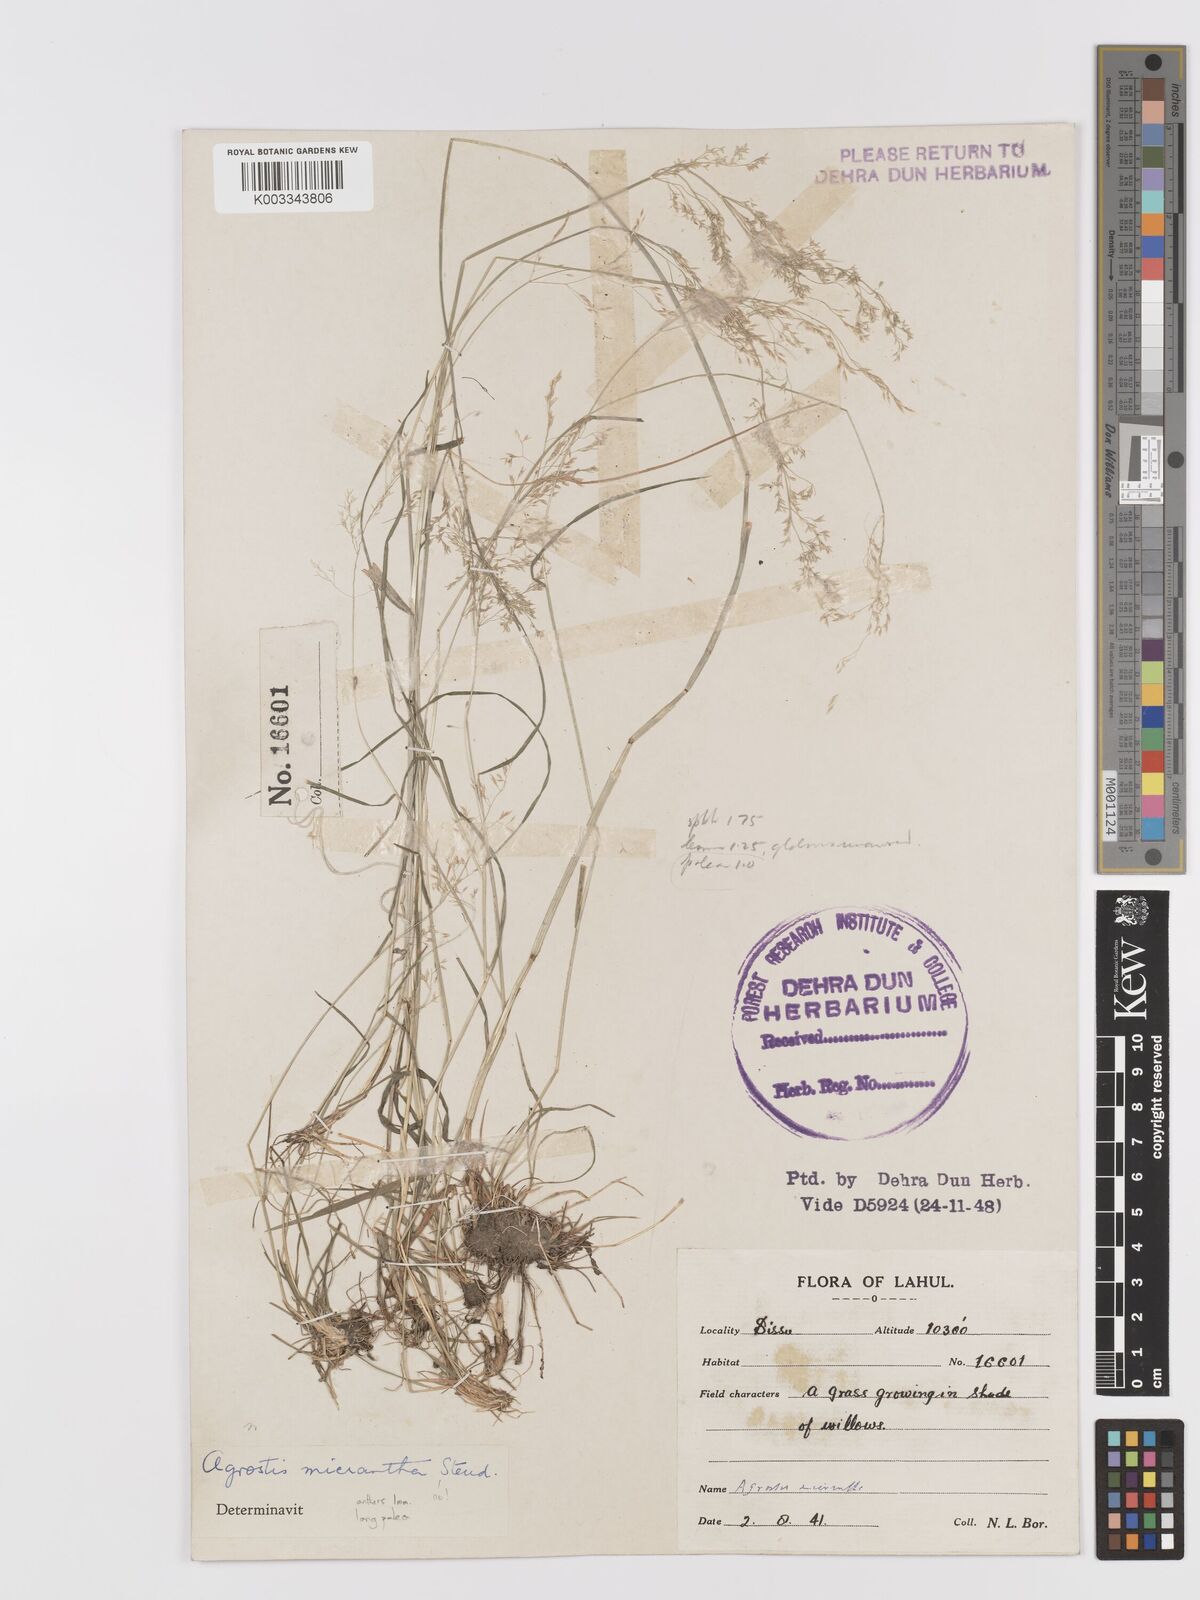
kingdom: Plantae
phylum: Tracheophyta
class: Liliopsida
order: Poales
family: Poaceae
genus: Agrostis
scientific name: Agrostis
